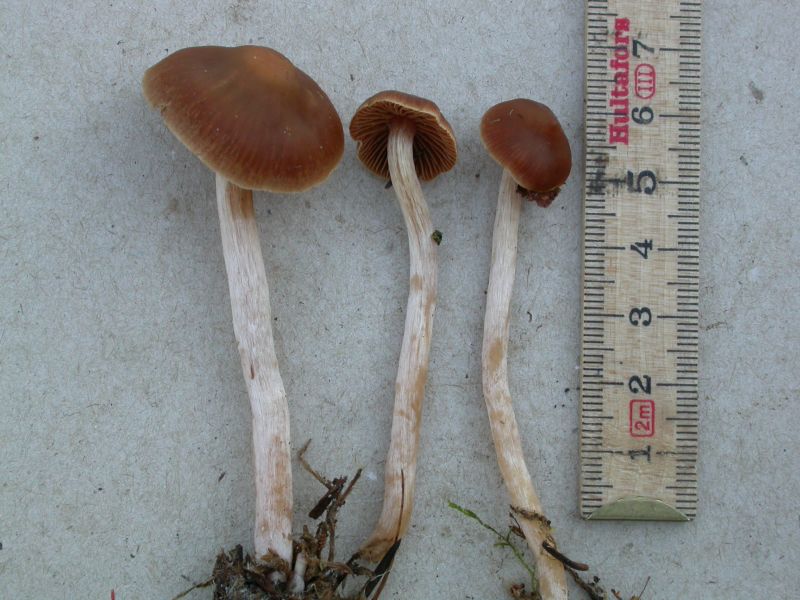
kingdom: Fungi
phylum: Basidiomycota
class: Agaricomycetes
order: Agaricales
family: Cortinariaceae
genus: Cortinarius
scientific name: Cortinarius
